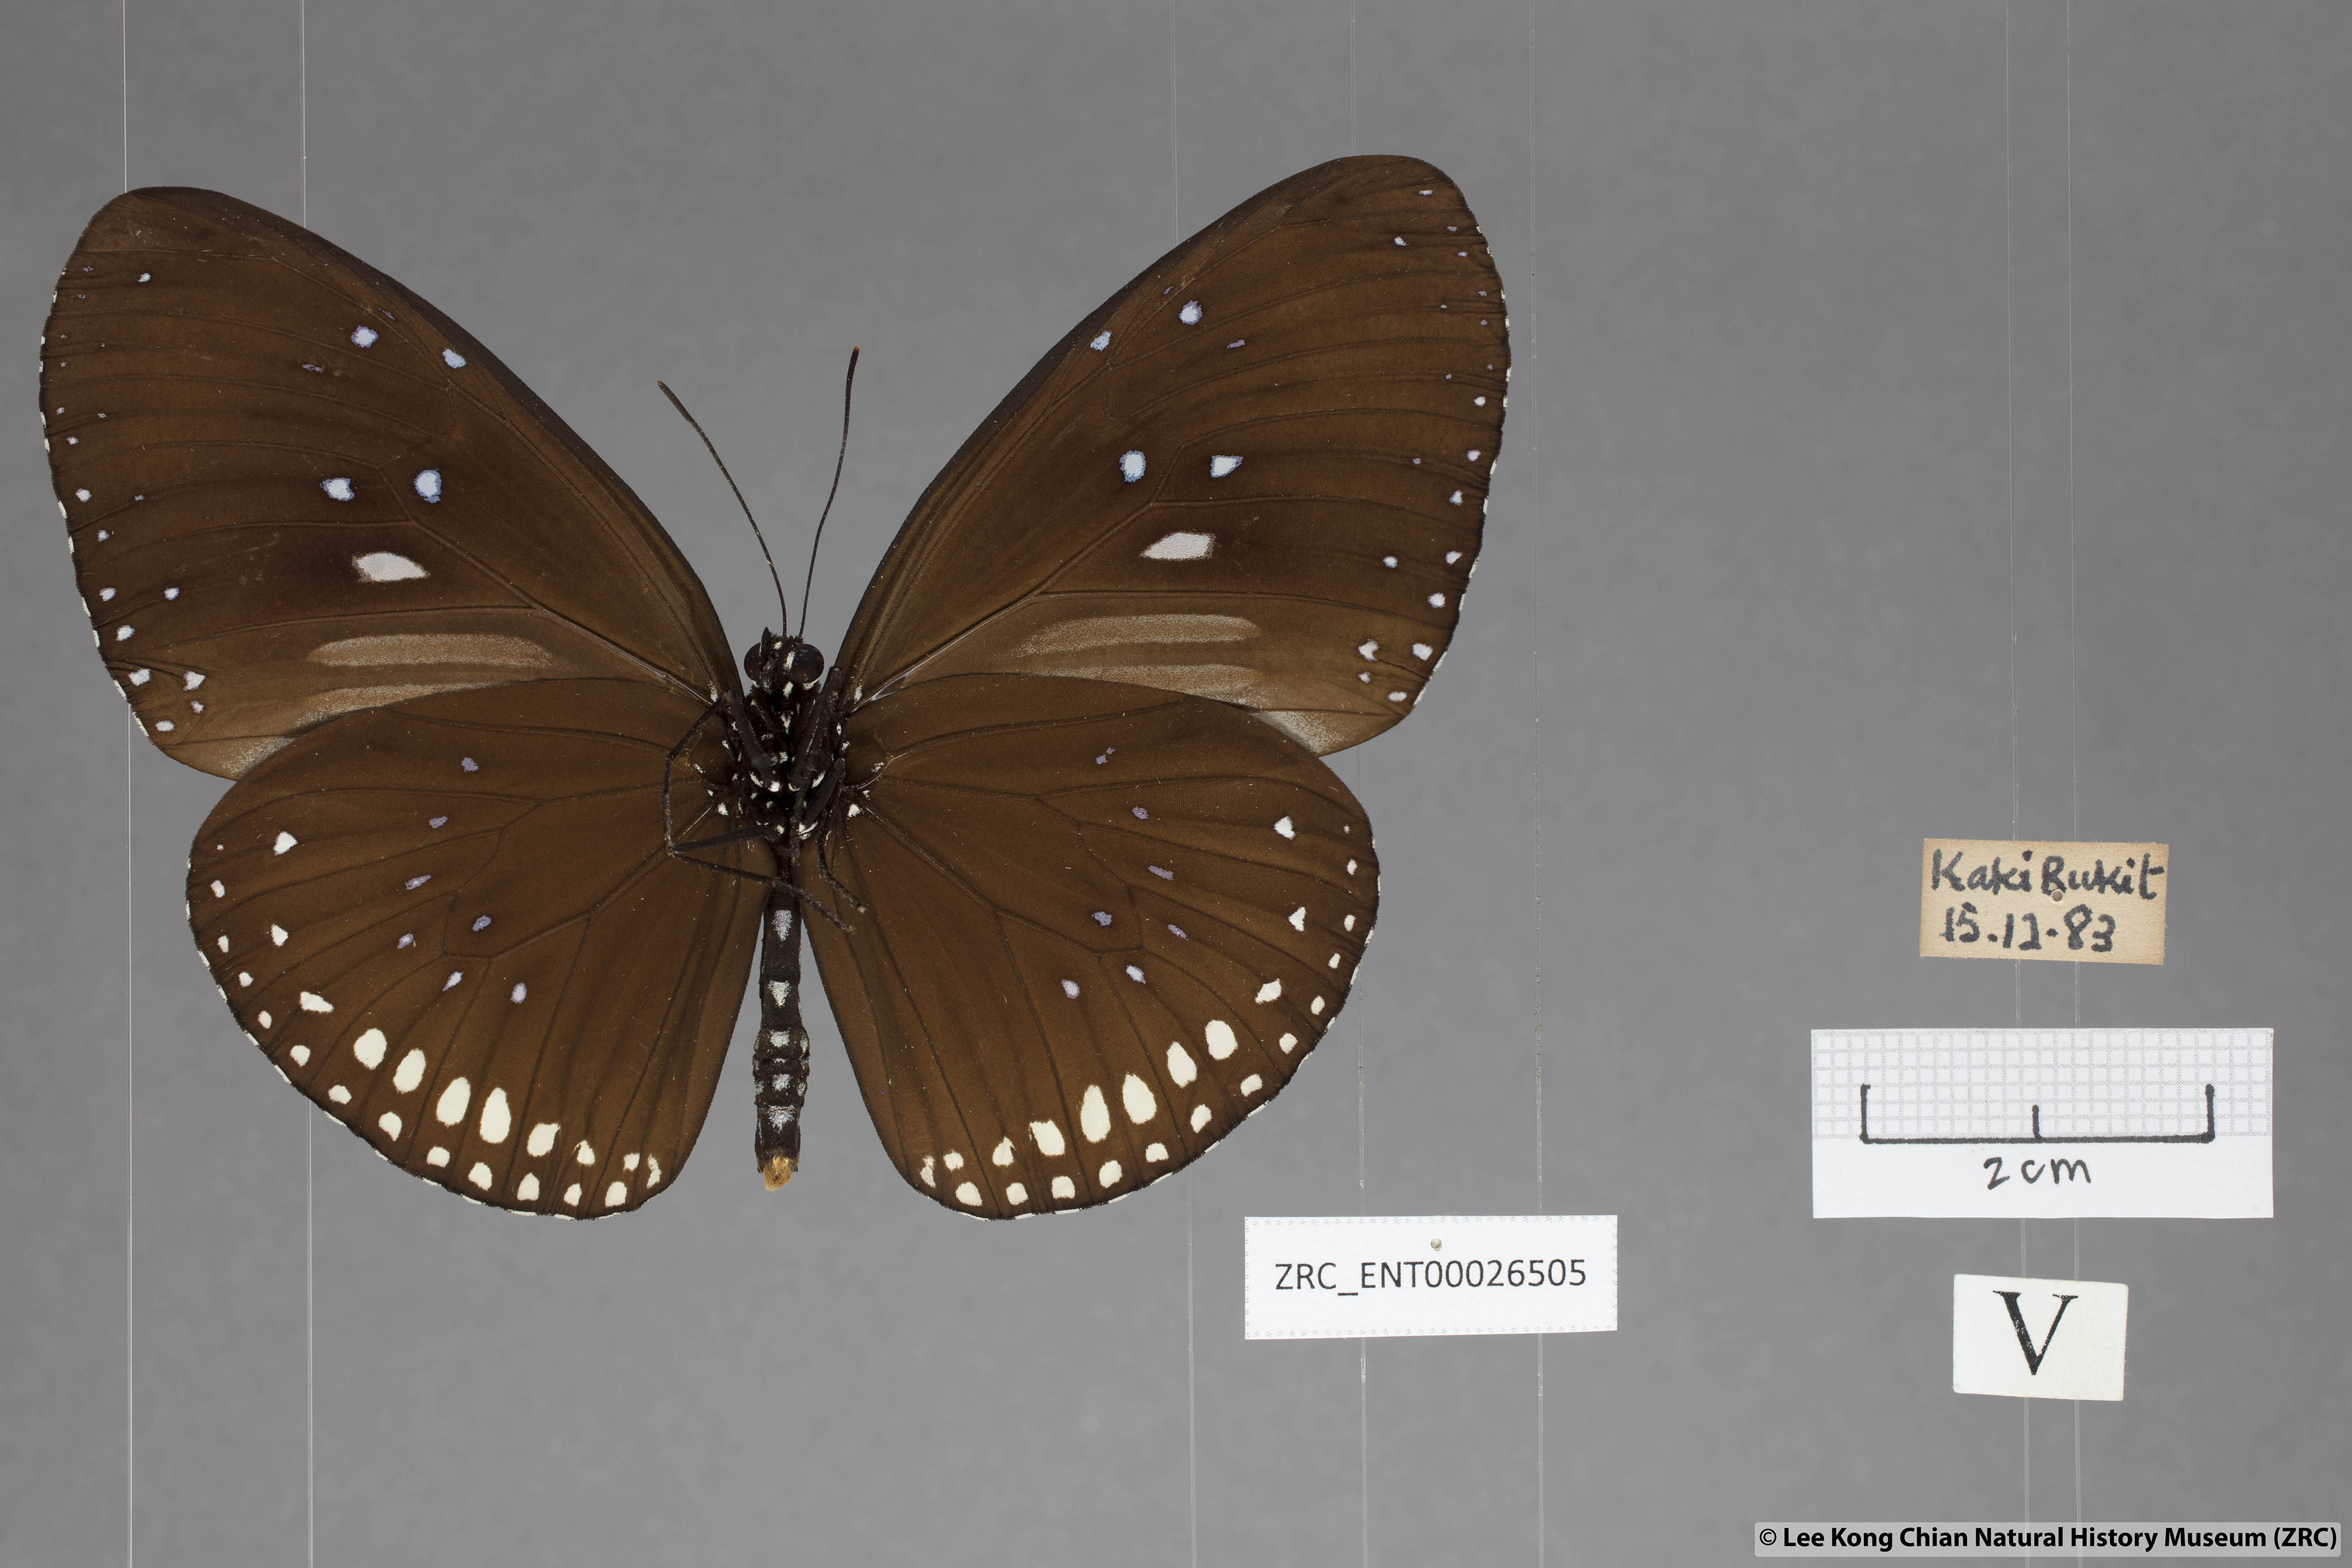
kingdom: Animalia
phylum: Arthropoda
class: Insecta
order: Lepidoptera
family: Nymphalidae
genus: Euploea
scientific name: Euploea sylvester
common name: Double-branded crow butterfly
